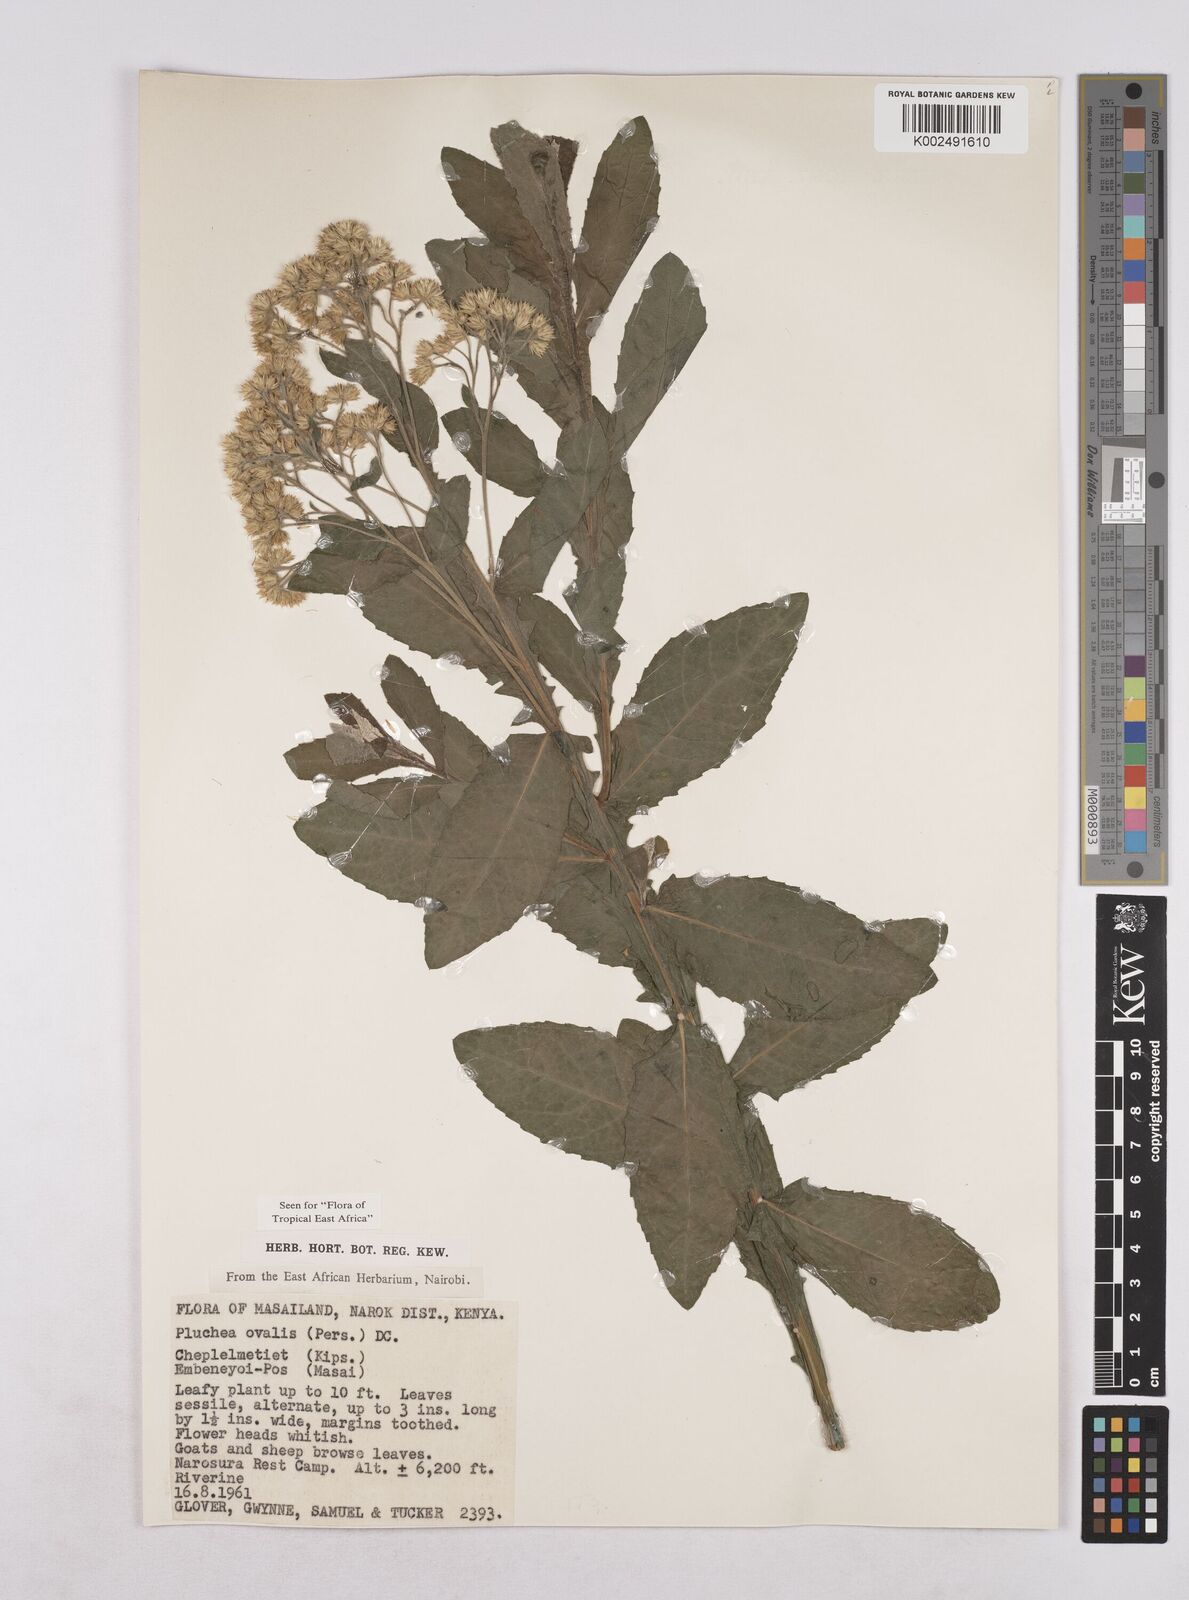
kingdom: Plantae
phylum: Tracheophyta
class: Magnoliopsida
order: Asterales
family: Asteraceae
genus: Pluchea
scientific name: Pluchea ovalis
